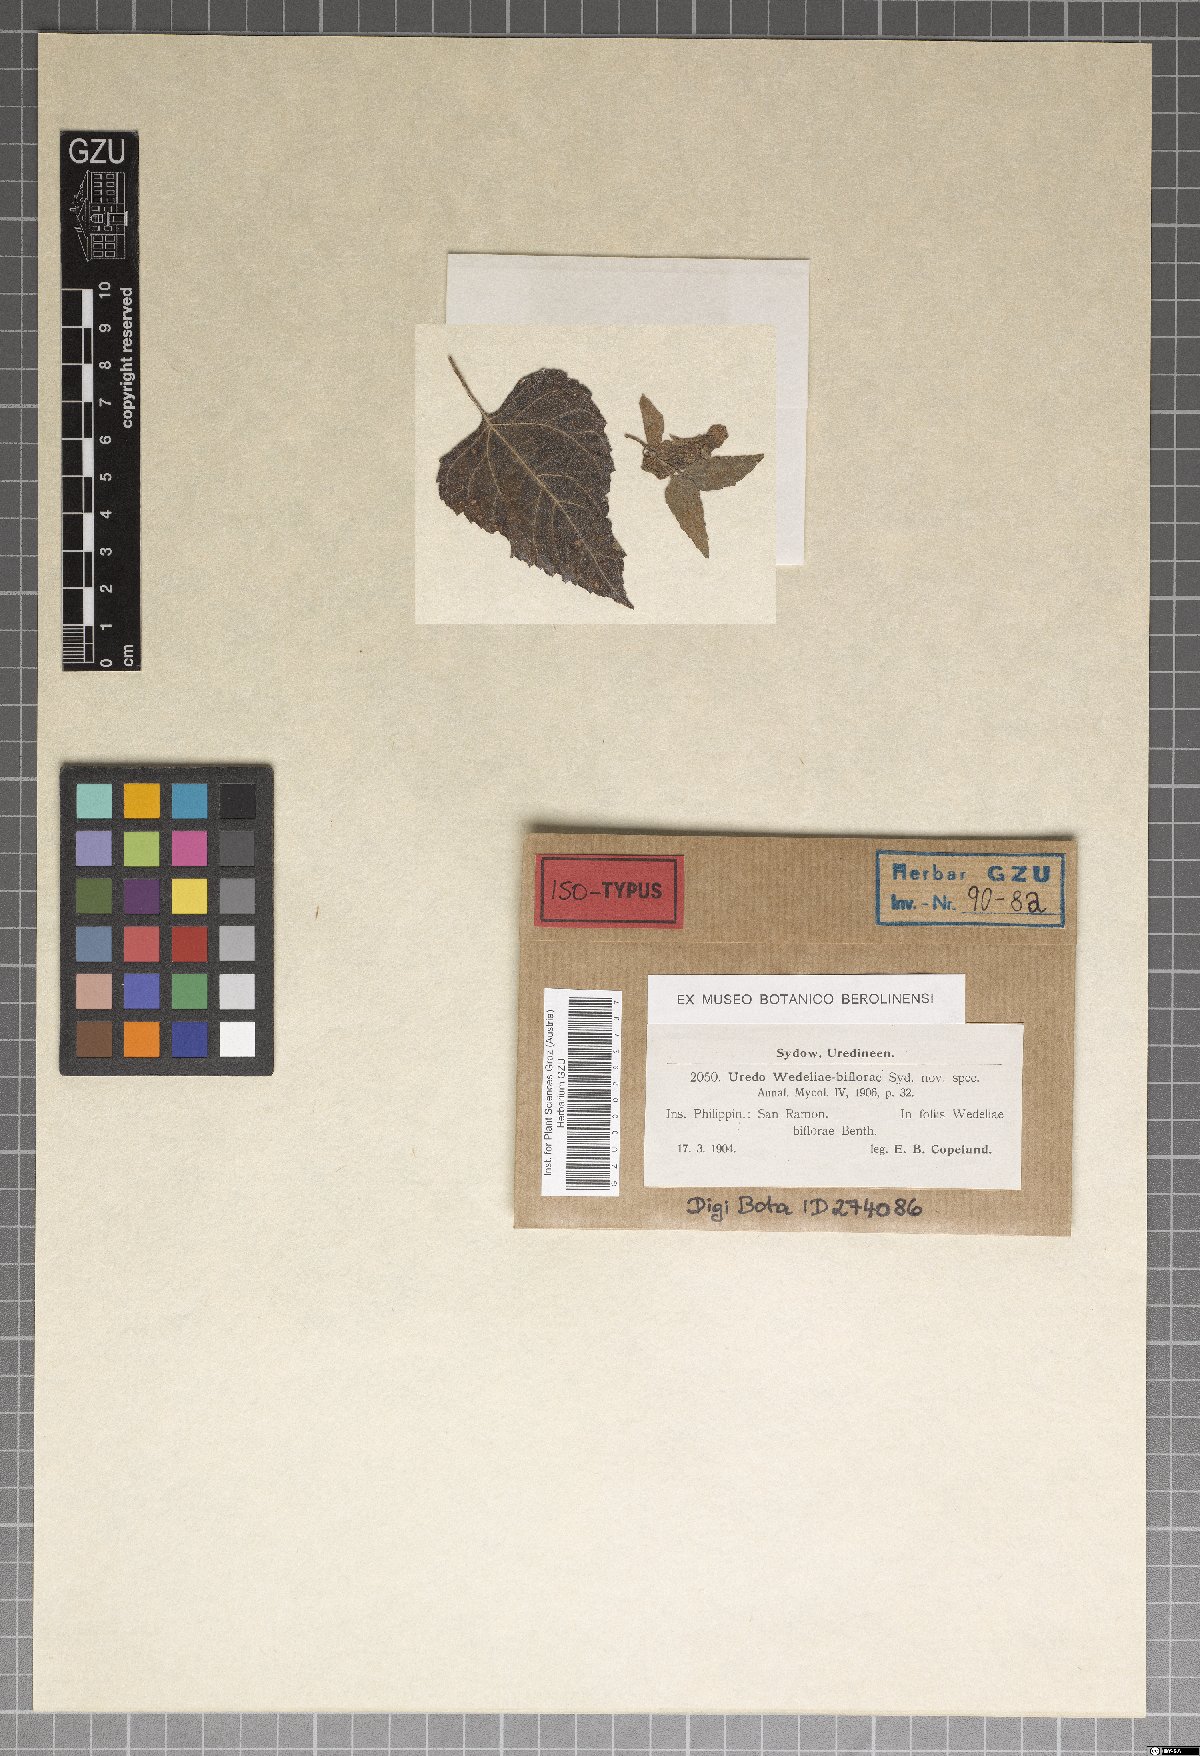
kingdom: Fungi
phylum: Basidiomycota
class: Pucciniomycetes
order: Pucciniales
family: Pucciniaceae
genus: Uromyces
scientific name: Uromyces wedeliae
